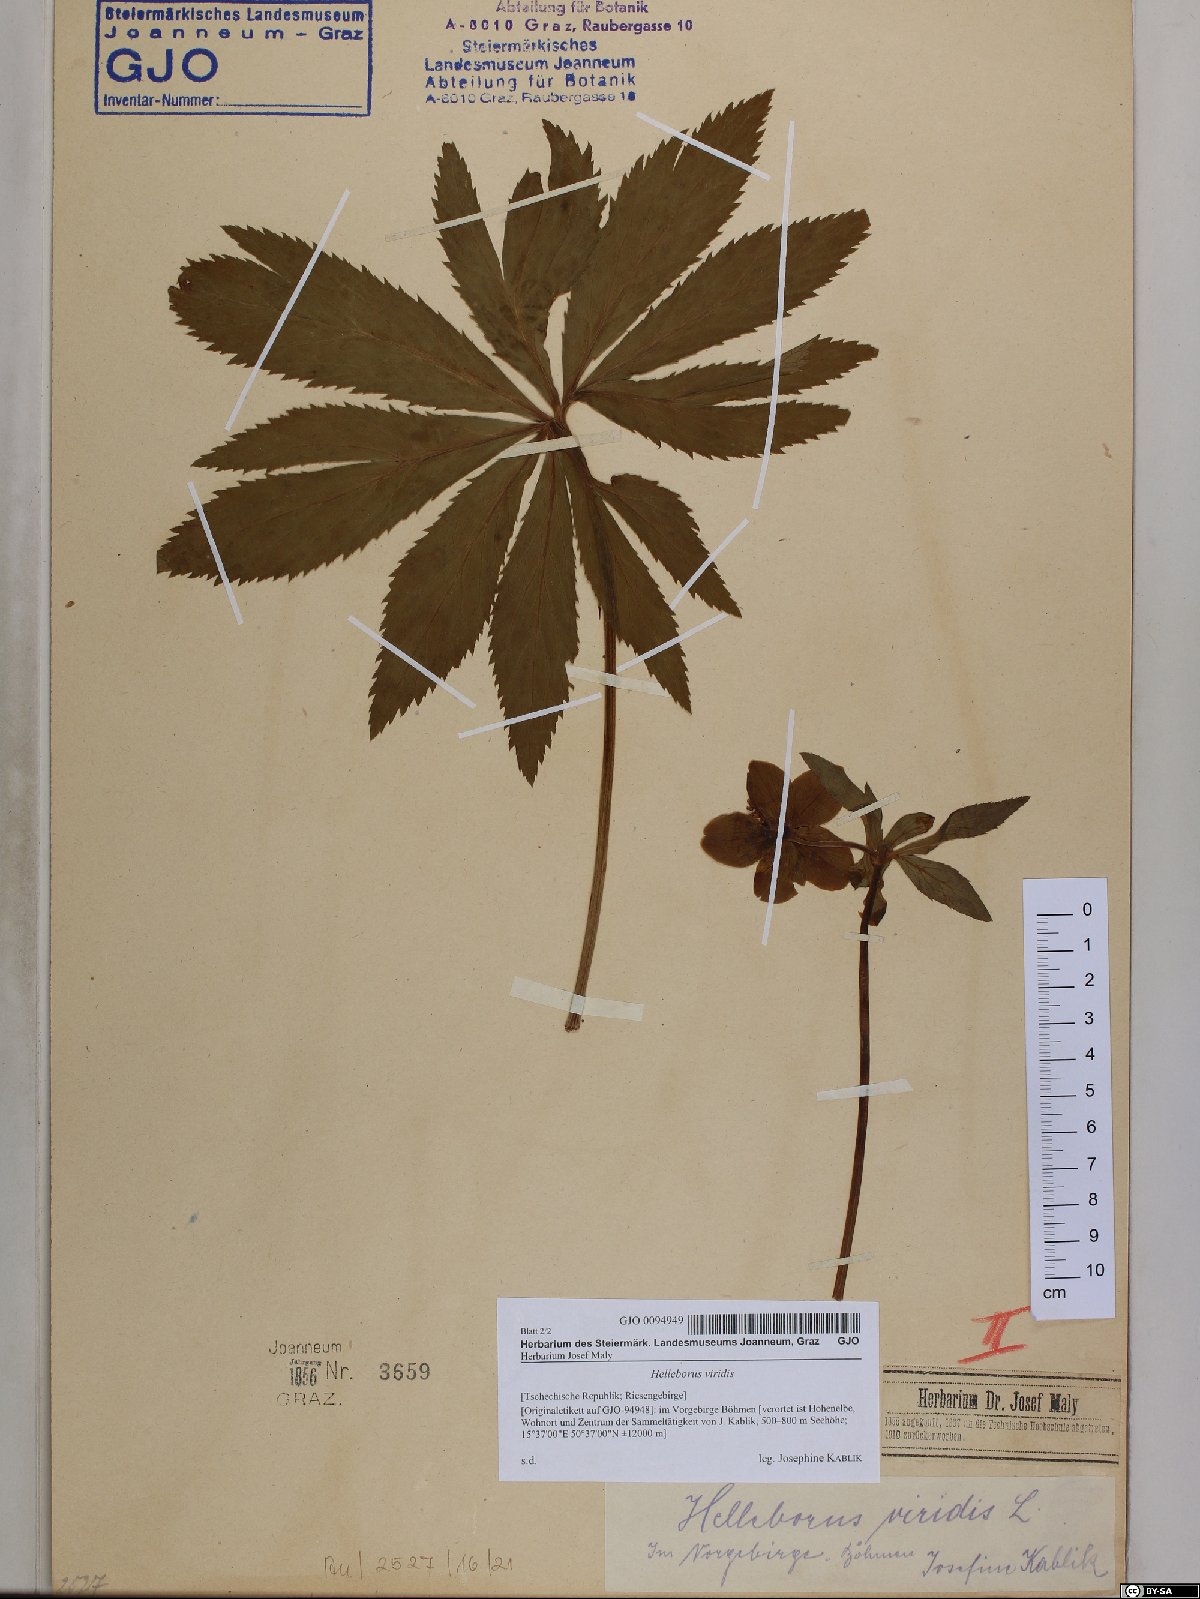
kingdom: Plantae
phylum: Tracheophyta
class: Magnoliopsida
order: Ranunculales
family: Ranunculaceae
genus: Helleborus
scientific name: Helleborus viridis
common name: Green hellebore
